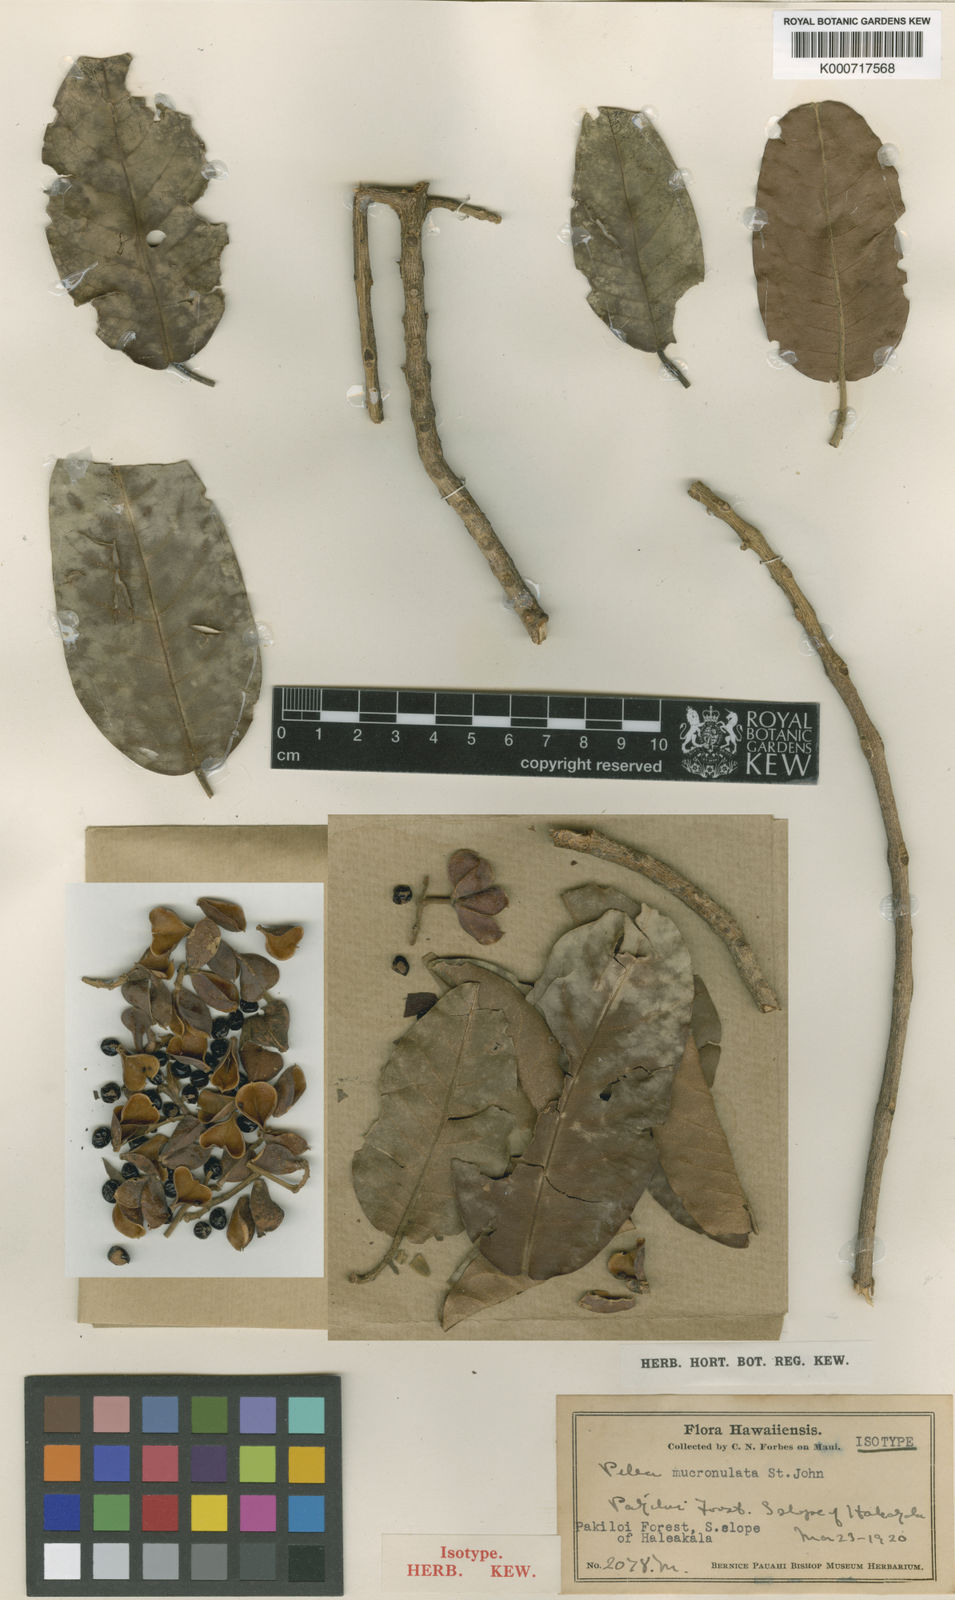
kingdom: Plantae
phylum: Tracheophyta
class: Magnoliopsida
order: Sapindales
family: Rutaceae
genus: Melicope
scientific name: Melicope mucronulata
